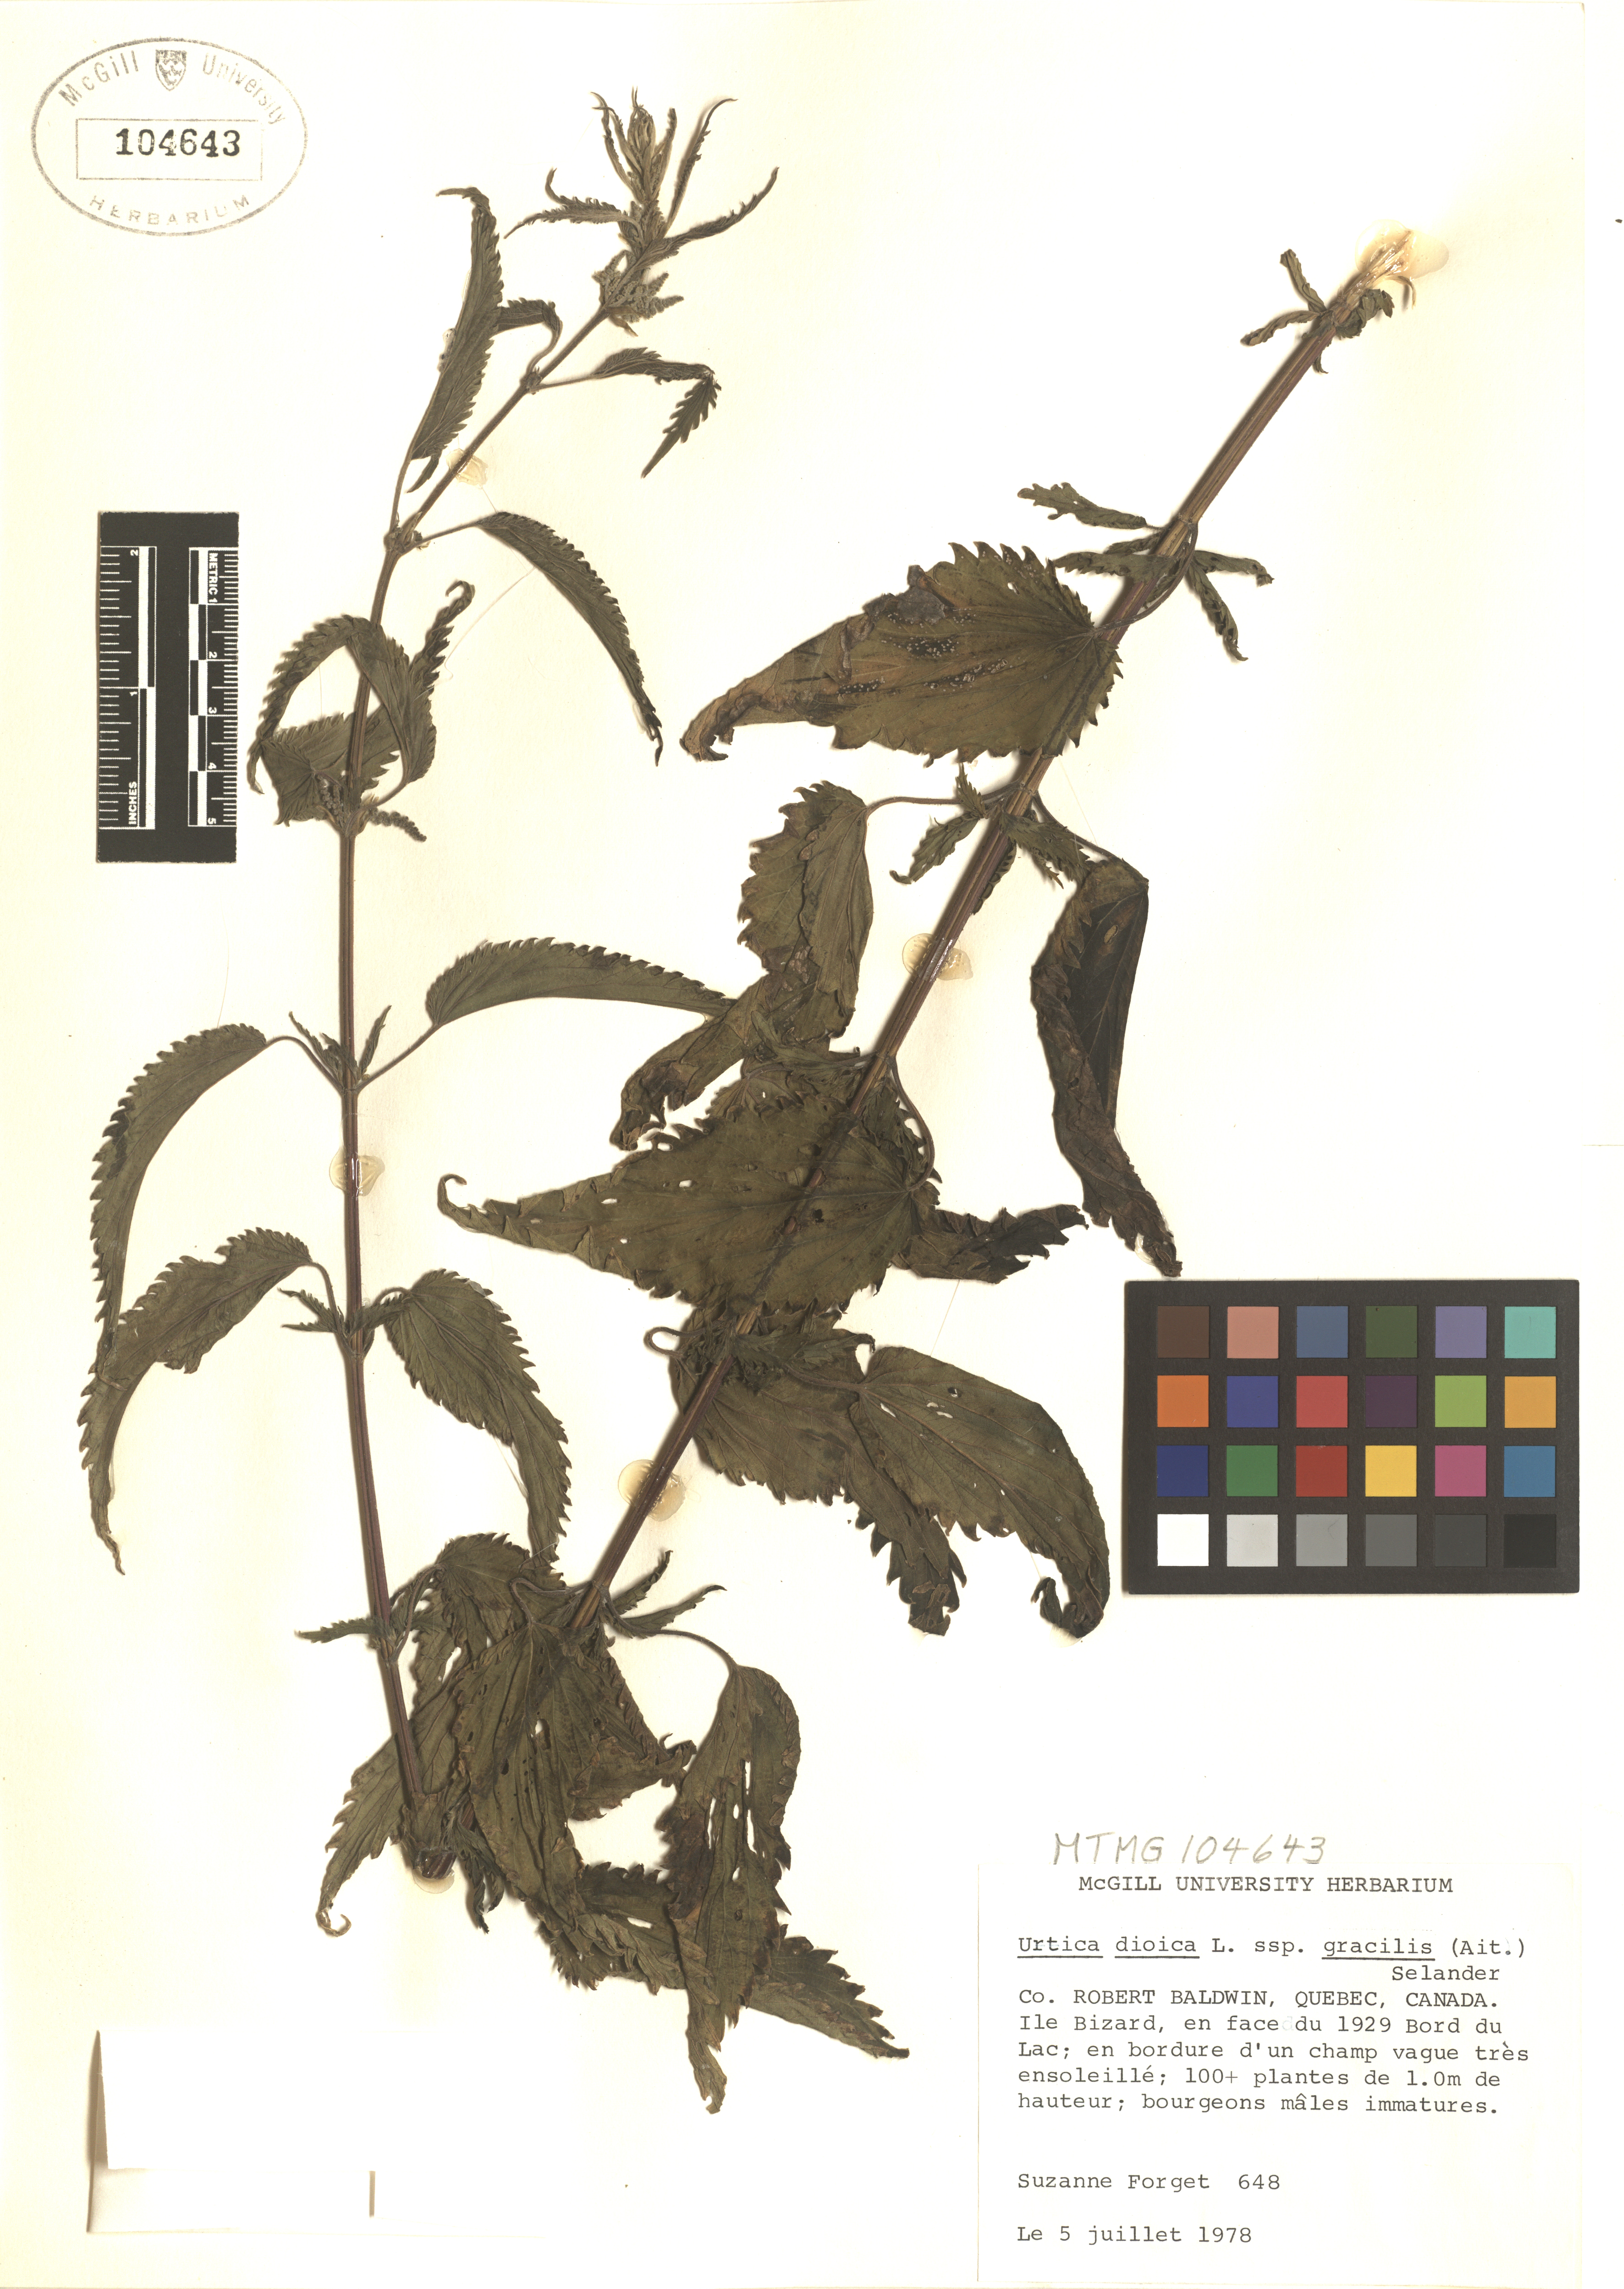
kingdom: Plantae
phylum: Tracheophyta
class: Magnoliopsida
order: Rosales
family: Urticaceae
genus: Urtica
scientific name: Urtica gracilis
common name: Slender stinging nettle
